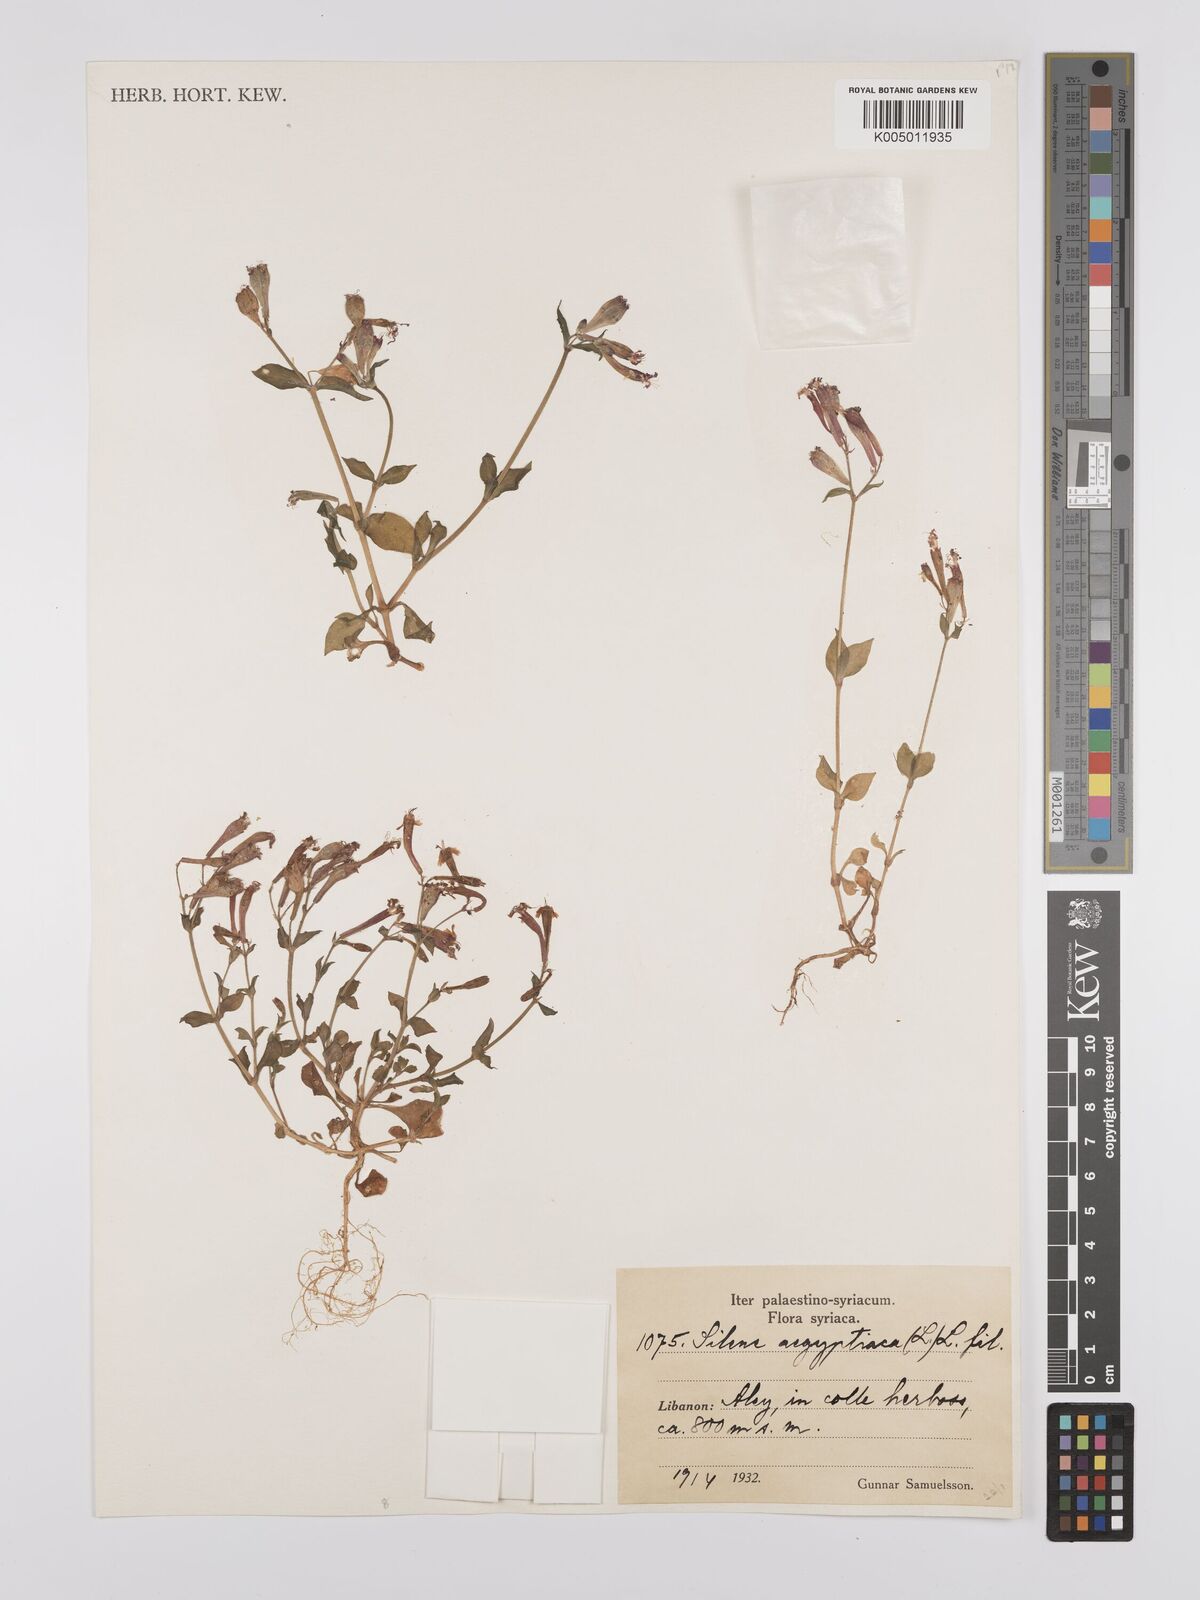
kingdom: Plantae
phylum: Tracheophyta
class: Magnoliopsida
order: Caryophyllales
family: Caryophyllaceae
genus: Silene
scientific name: Silene aegyptiaca
